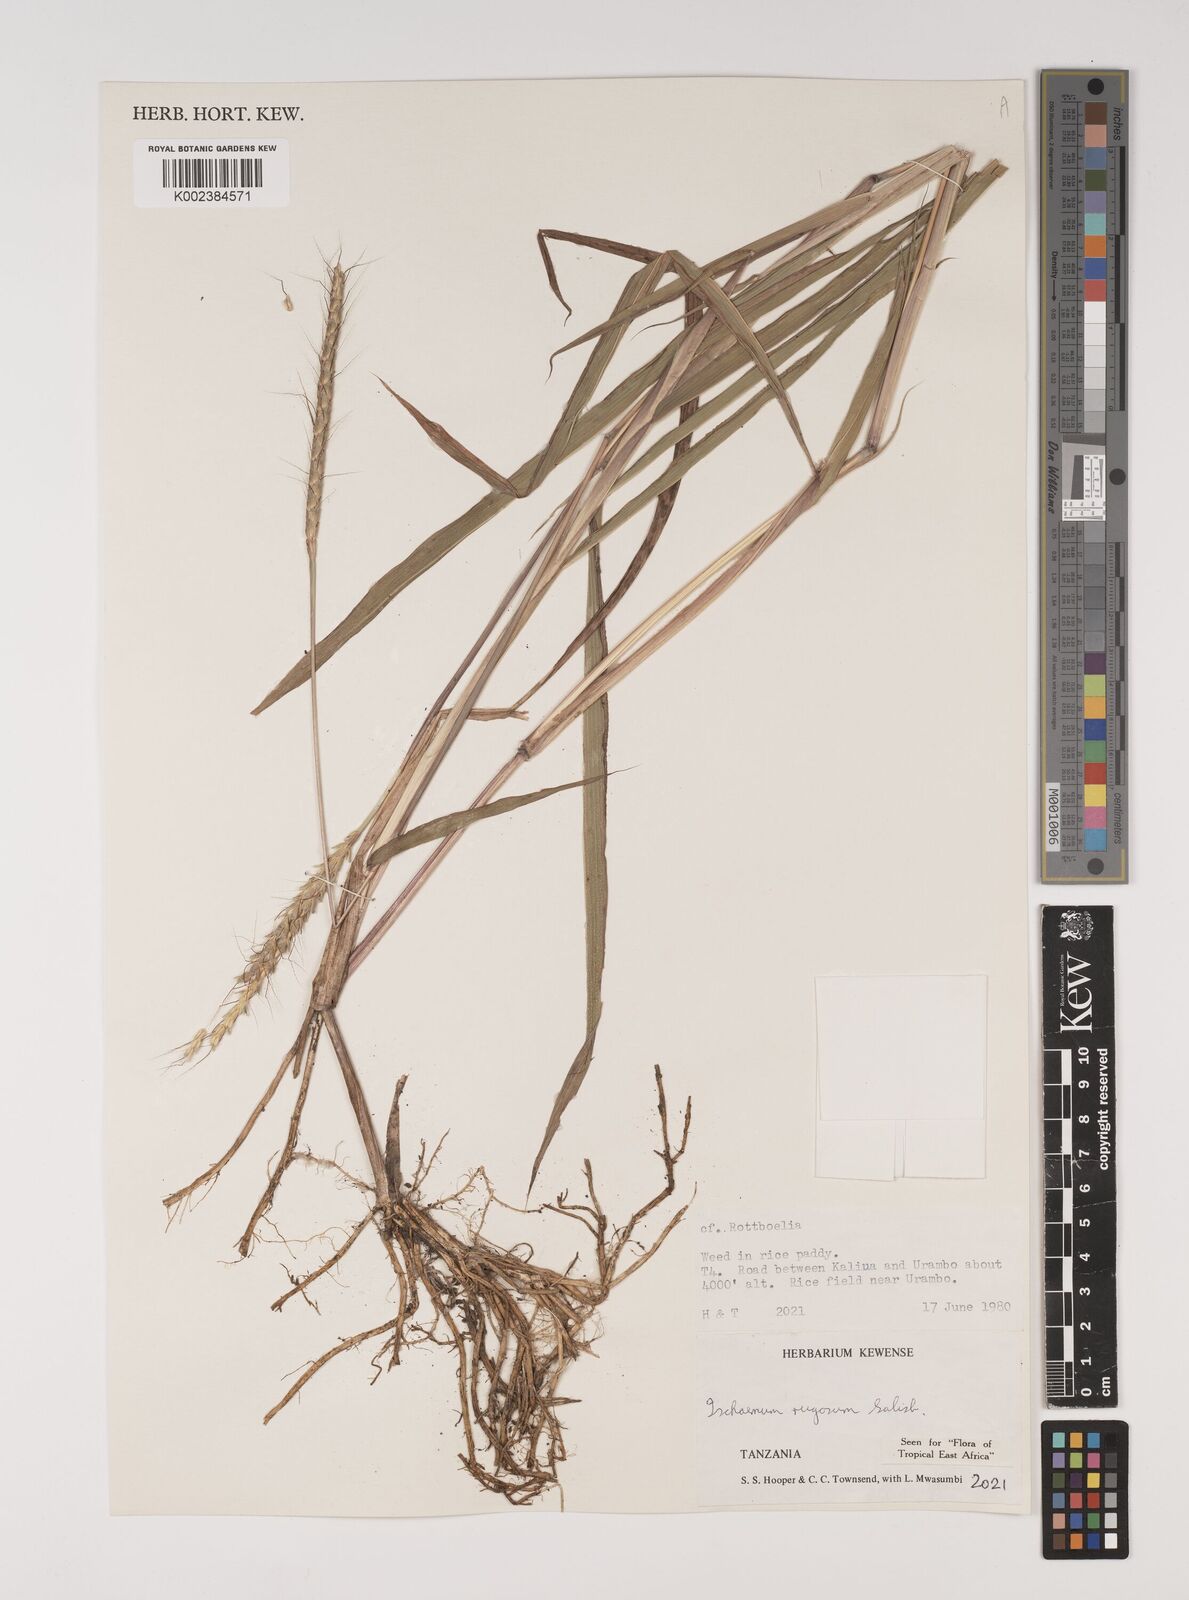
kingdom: Plantae
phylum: Tracheophyta
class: Liliopsida
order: Poales
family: Poaceae
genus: Ischaemum
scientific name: Ischaemum rugosum
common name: Saramatta grass
